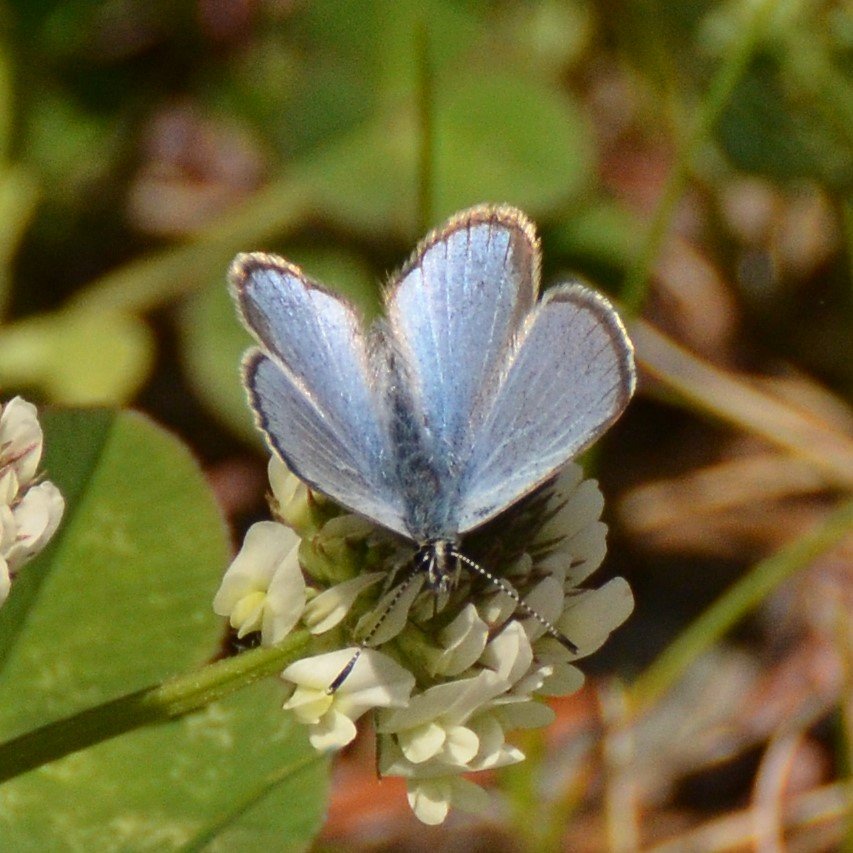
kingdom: Animalia
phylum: Arthropoda
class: Insecta
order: Lepidoptera
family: Lycaenidae
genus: Glaucopsyche
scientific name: Glaucopsyche lygdamus
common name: Silvery Blue
